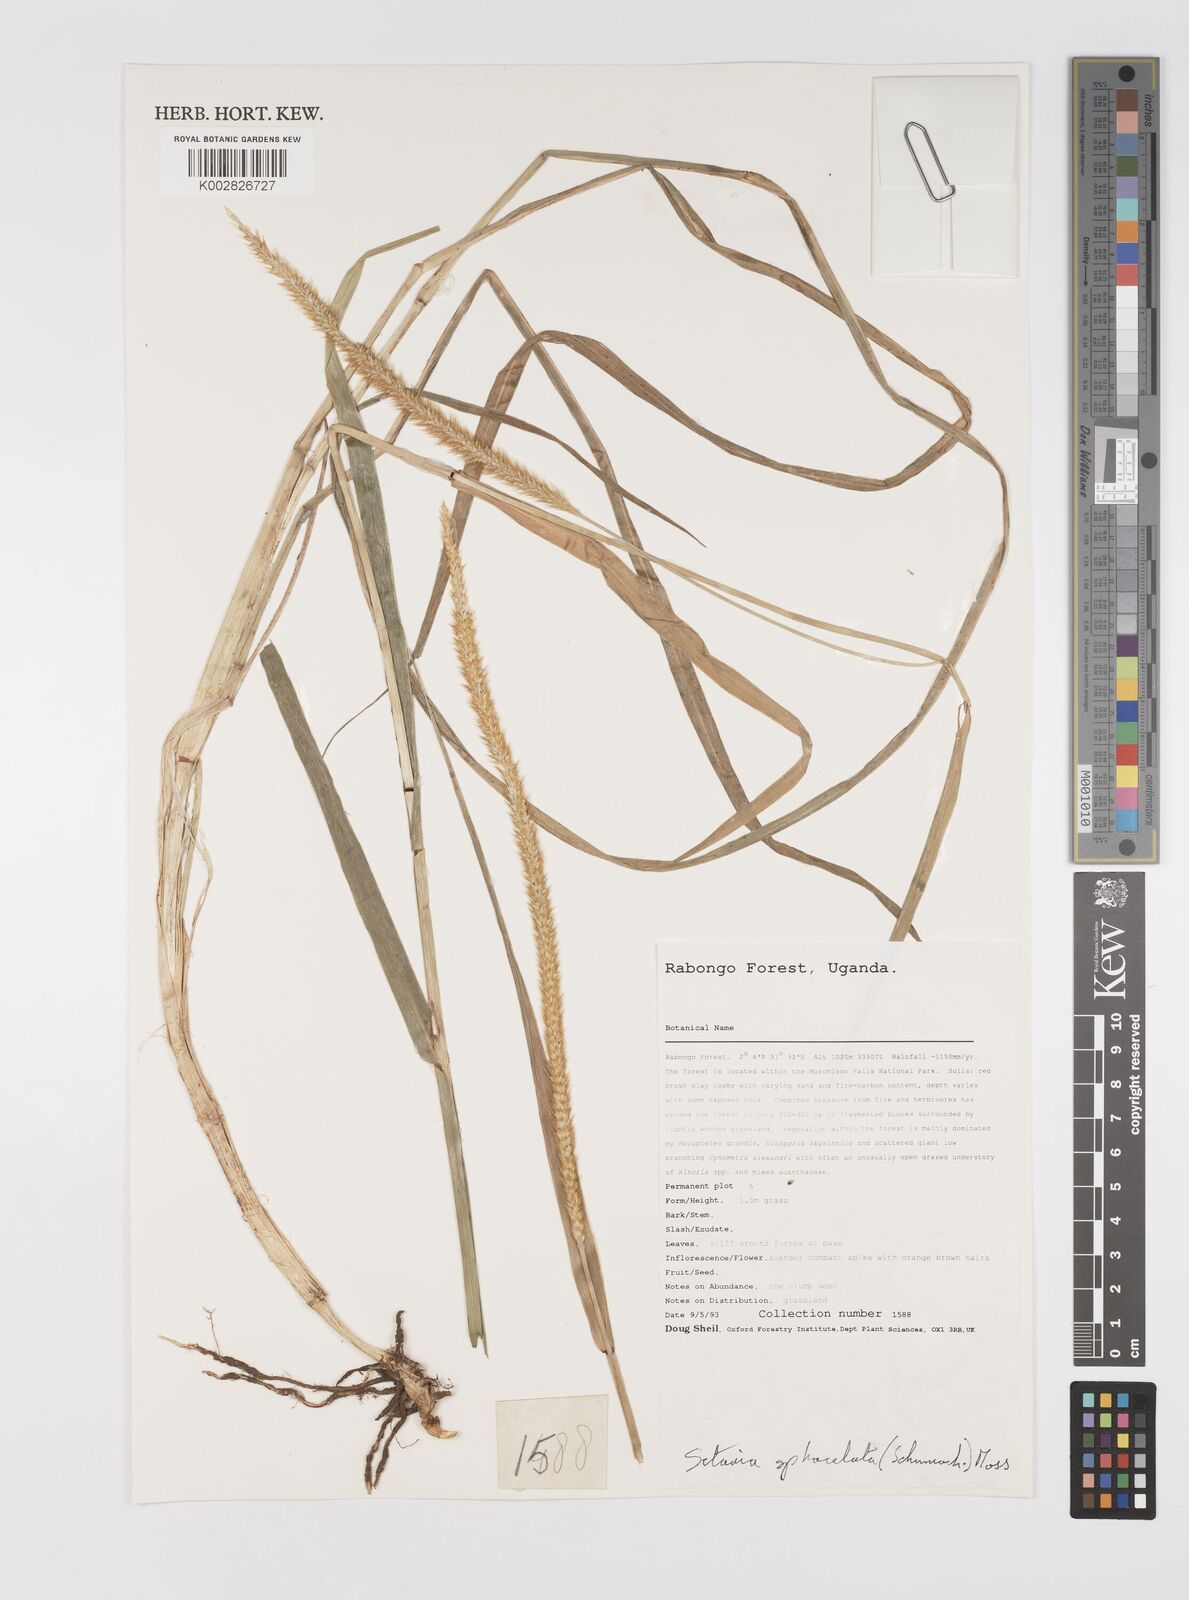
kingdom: Plantae
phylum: Tracheophyta
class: Liliopsida
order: Poales
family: Poaceae
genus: Setaria
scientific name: Setaria sphacelata
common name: African bristlegrass
